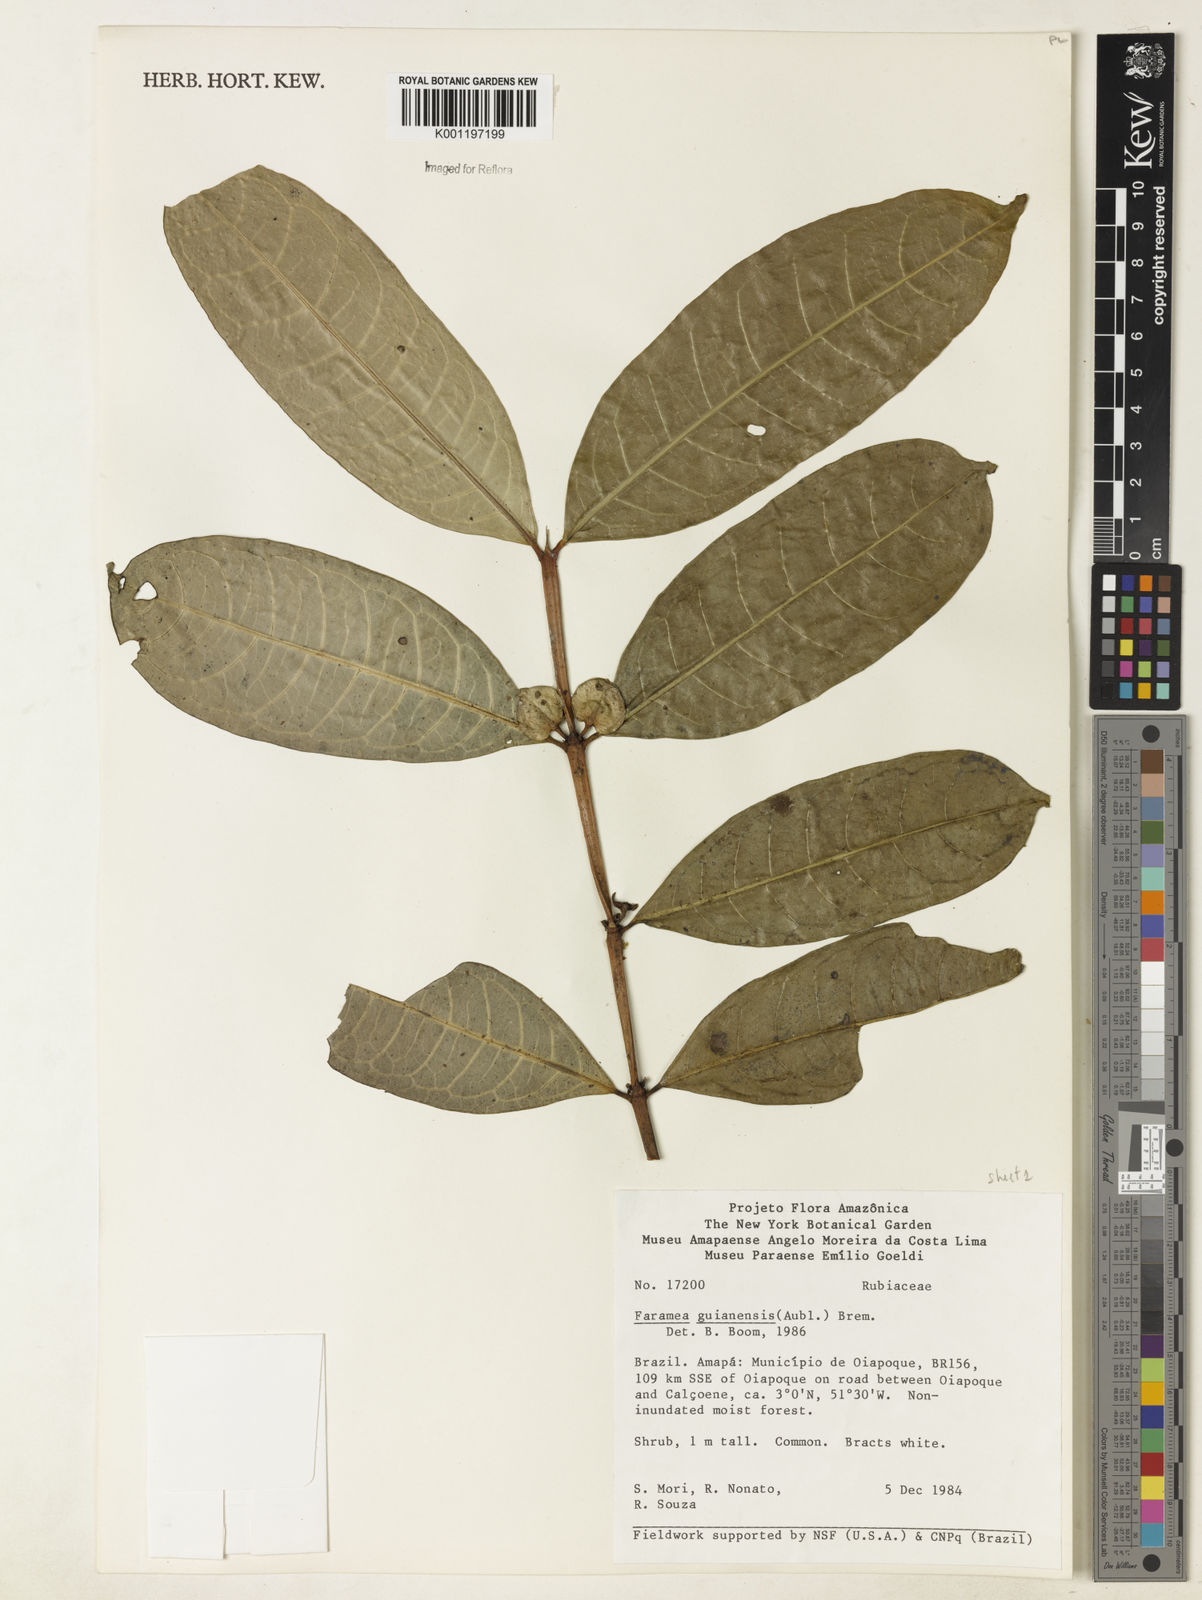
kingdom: Plantae
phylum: Tracheophyta
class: Magnoliopsida
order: Gentianales
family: Rubiaceae
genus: Faramea
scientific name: Faramea guianensis
